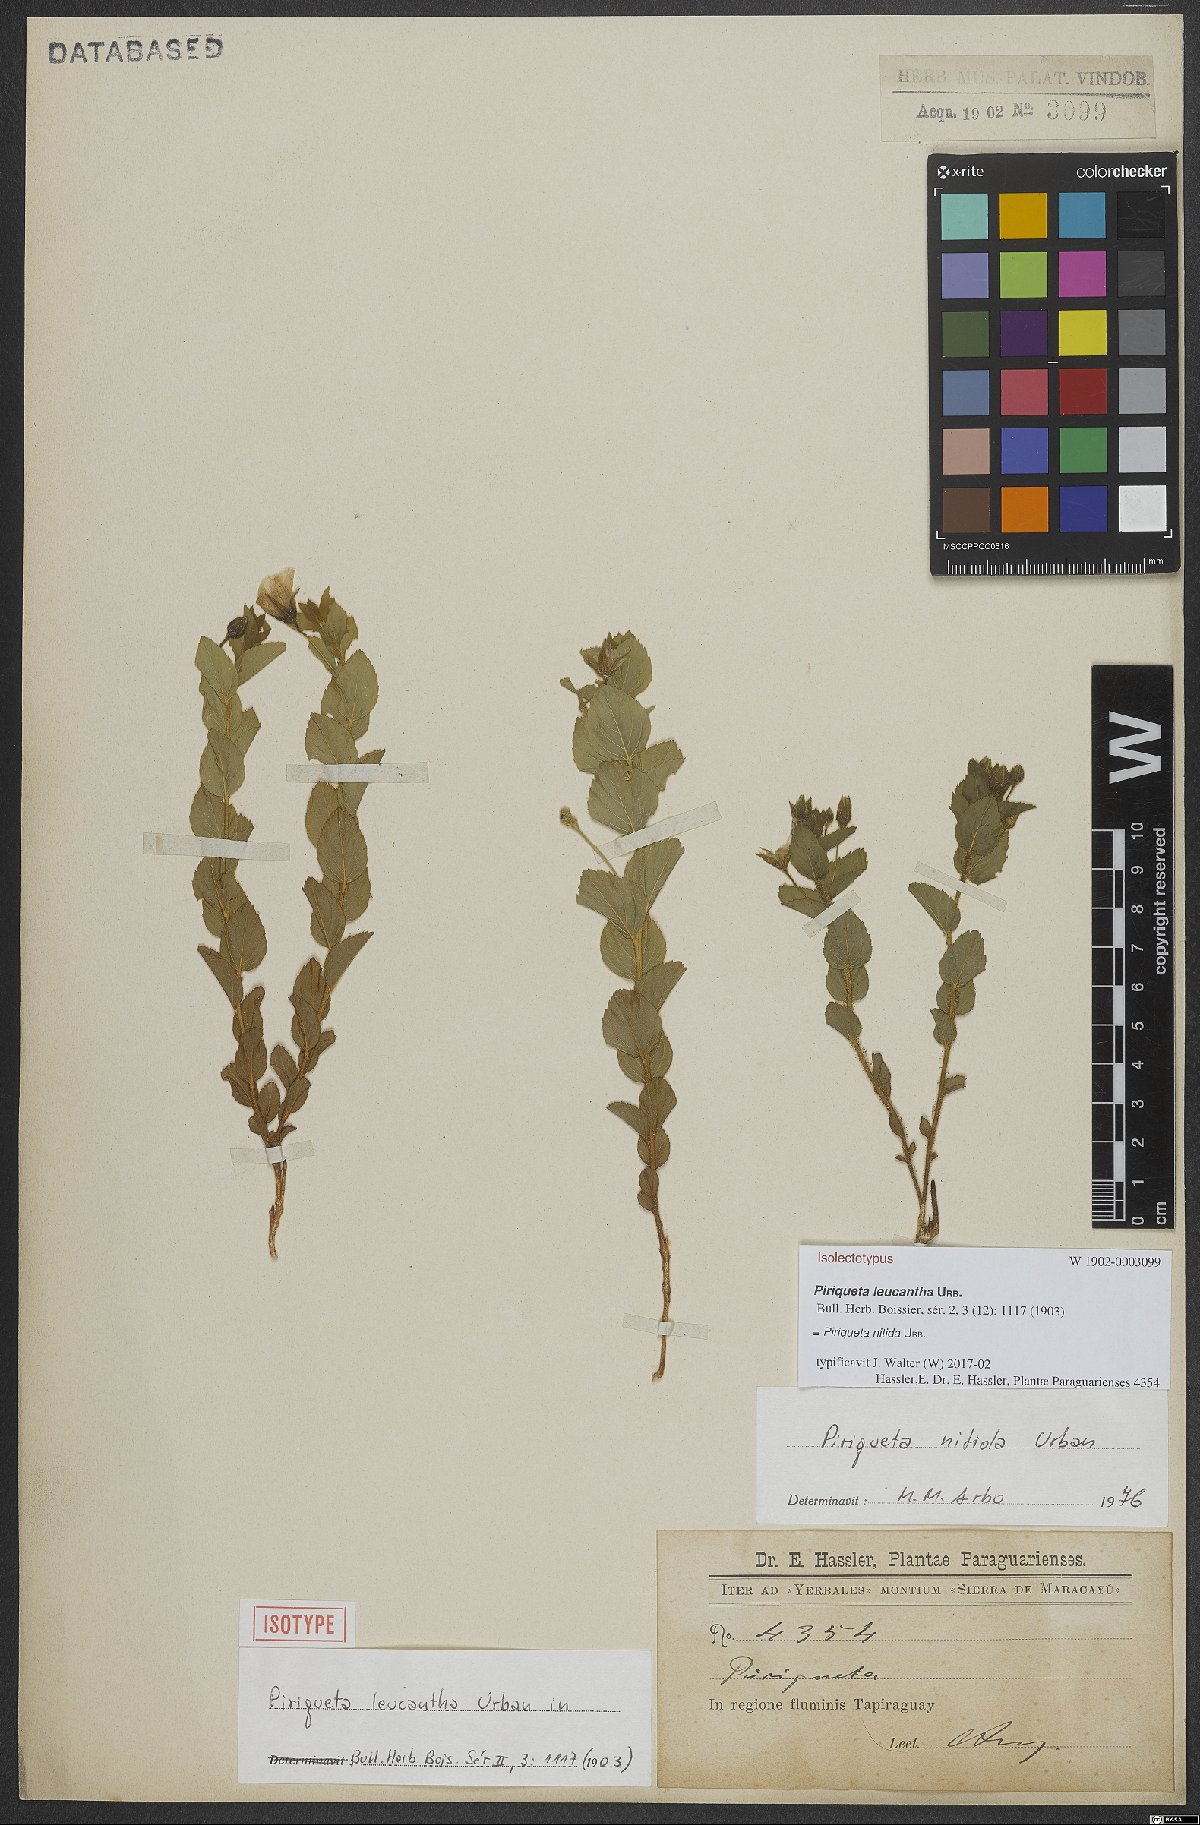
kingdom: Plantae
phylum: Tracheophyta
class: Magnoliopsida
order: Malpighiales
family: Turneraceae
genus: Piriqueta
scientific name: Piriqueta nitida
